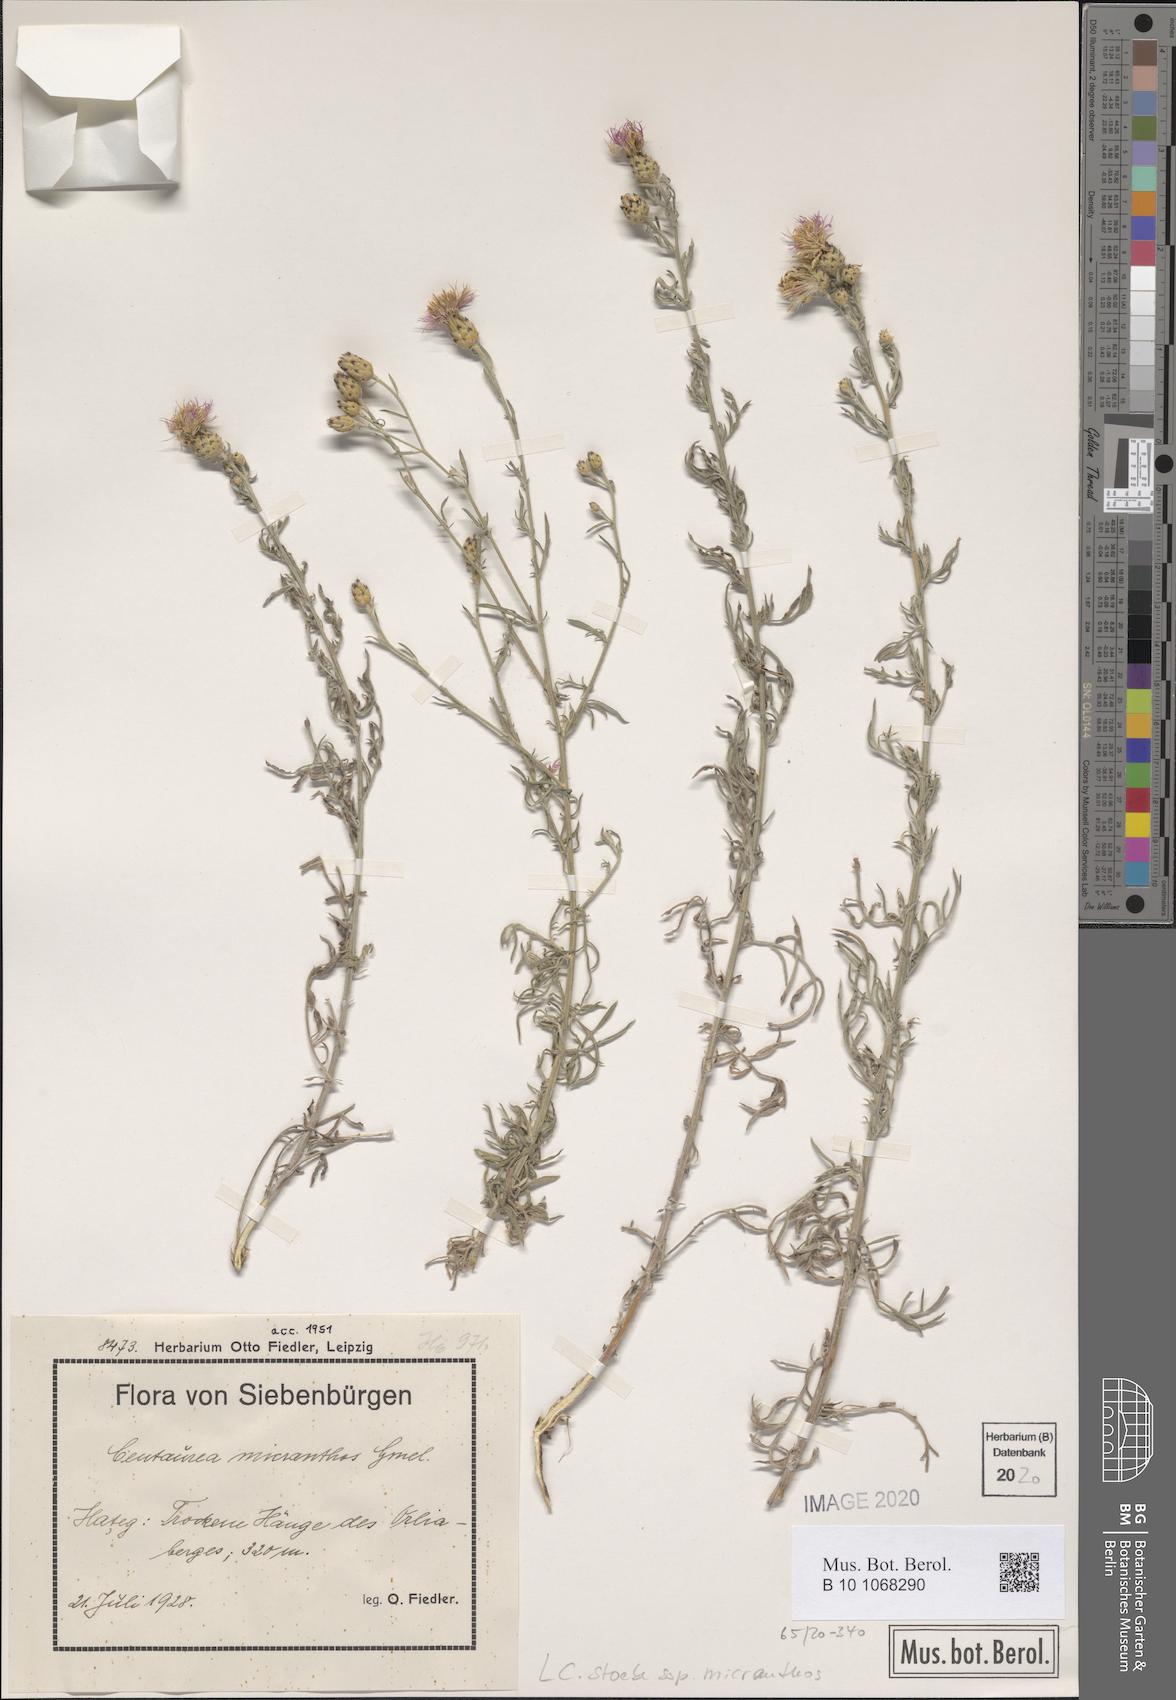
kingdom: Plantae
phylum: Tracheophyta
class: Magnoliopsida
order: Asterales
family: Asteraceae
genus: Centaurea
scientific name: Centaurea australis
